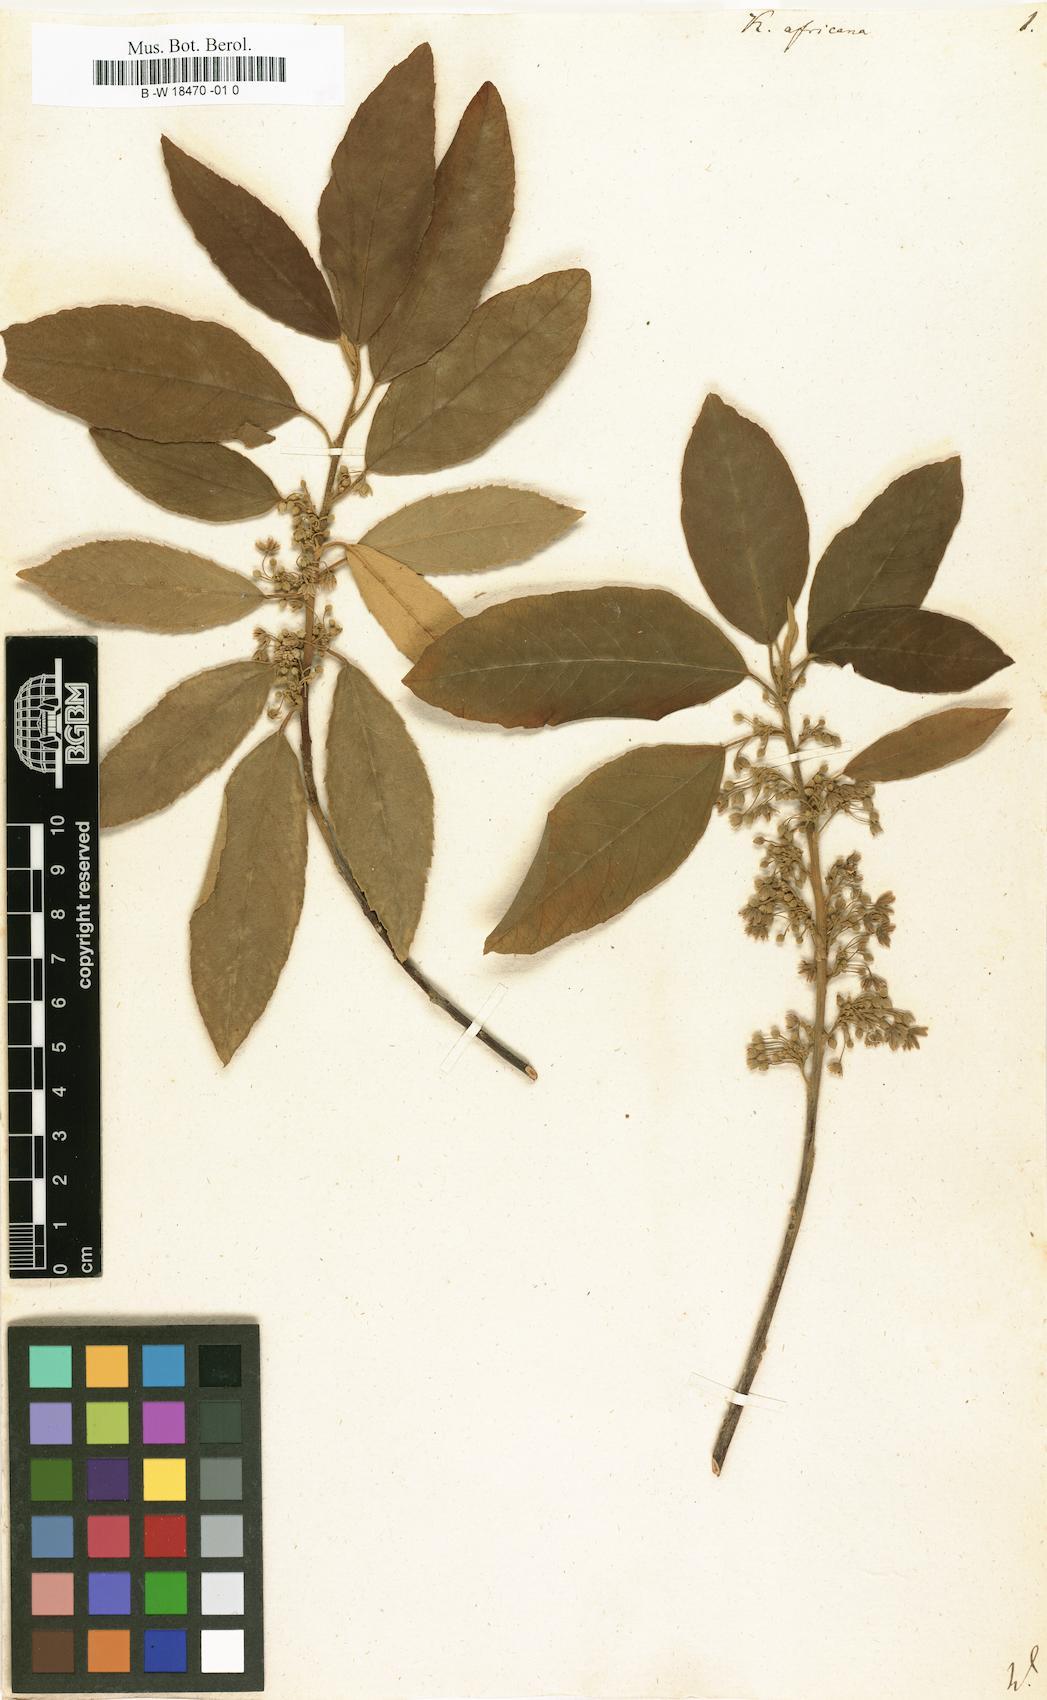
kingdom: Plantae
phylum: Tracheophyta
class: Magnoliopsida
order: Malpighiales
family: Achariaceae
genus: Kiggelaria
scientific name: Kiggelaria africana
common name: Wild peach
